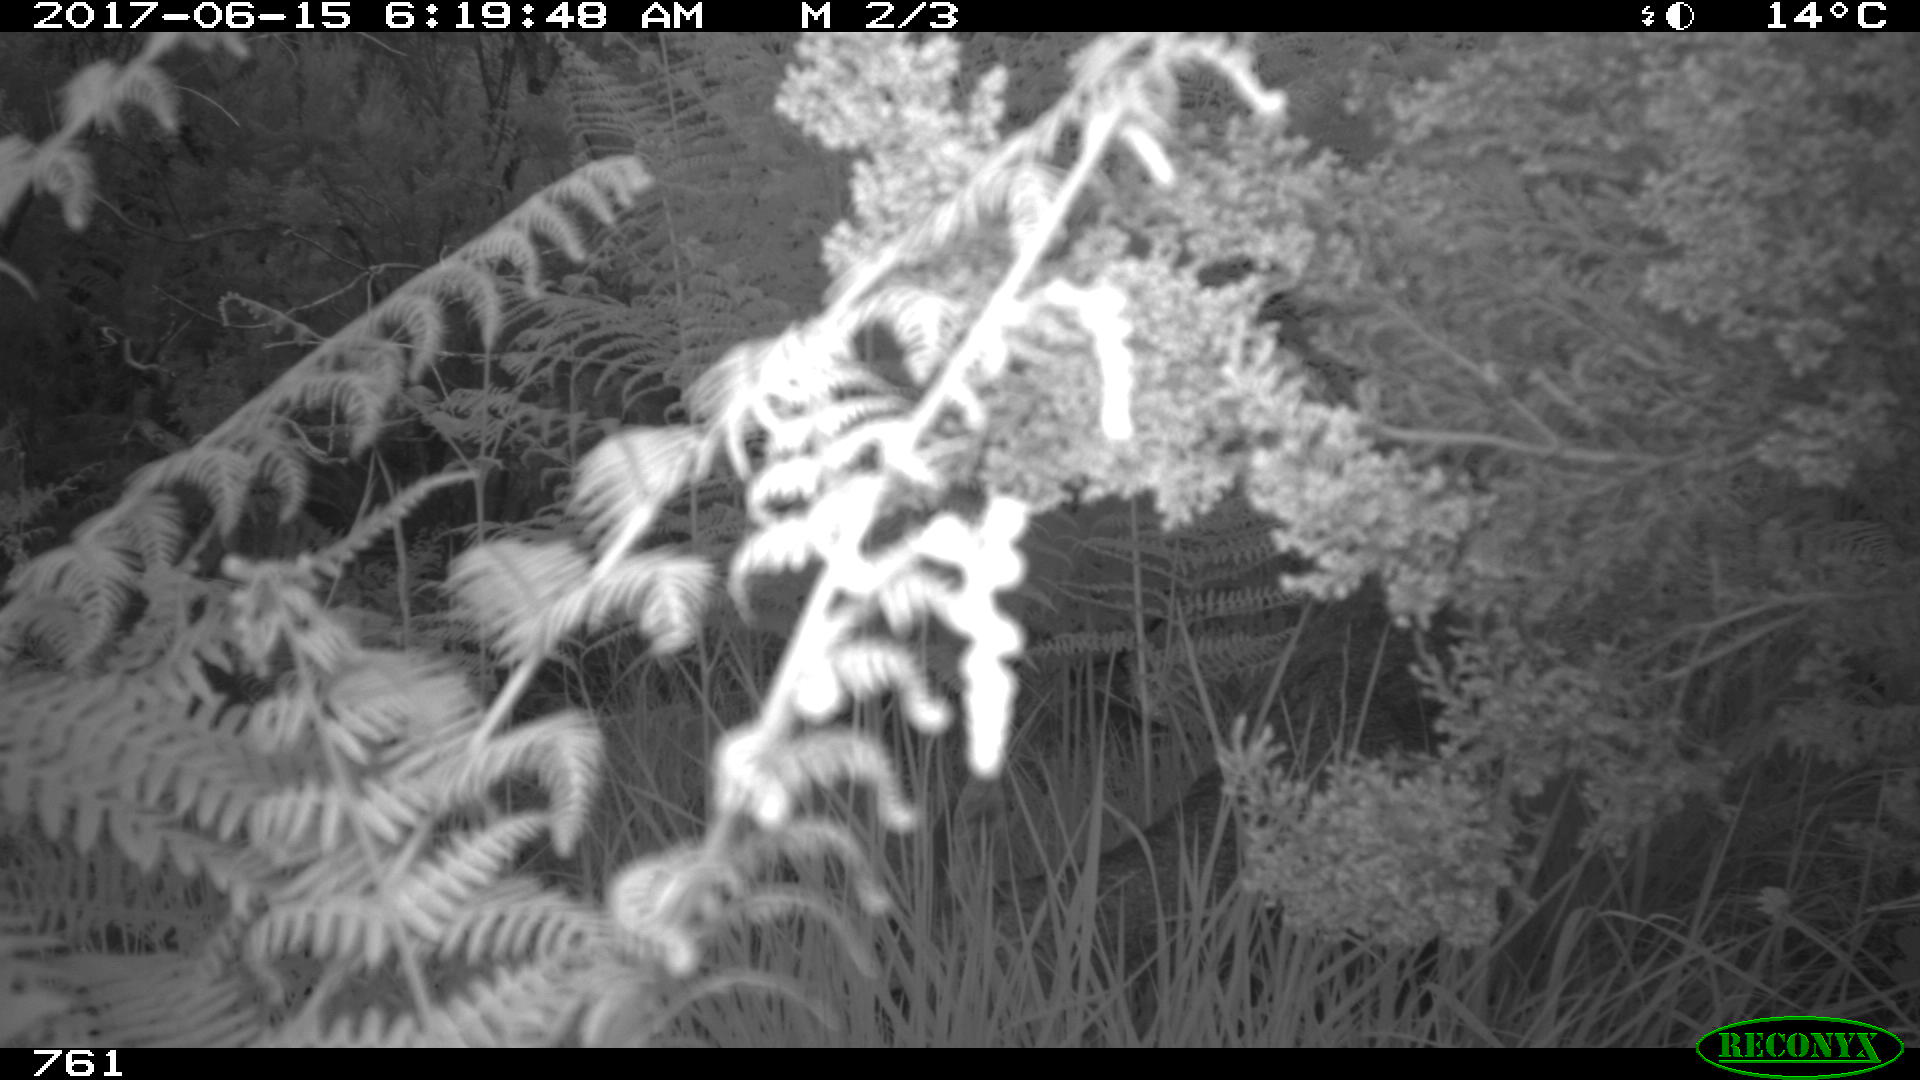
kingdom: Animalia
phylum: Chordata
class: Mammalia
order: Artiodactyla
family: Cervidae
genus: Capreolus
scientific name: Capreolus capreolus
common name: Western roe deer
